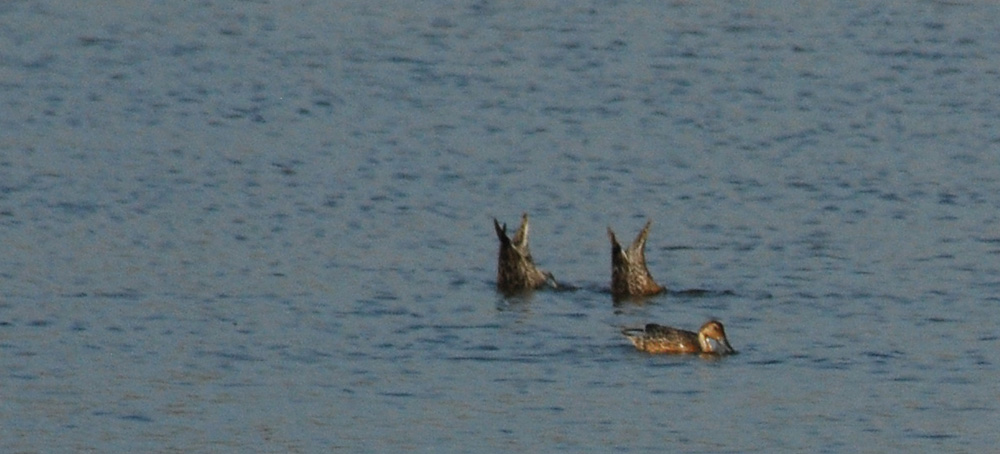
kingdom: Animalia
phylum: Chordata
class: Aves
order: Anseriformes
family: Anatidae
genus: Spatula
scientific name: Spatula clypeata
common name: Northern shoveler
